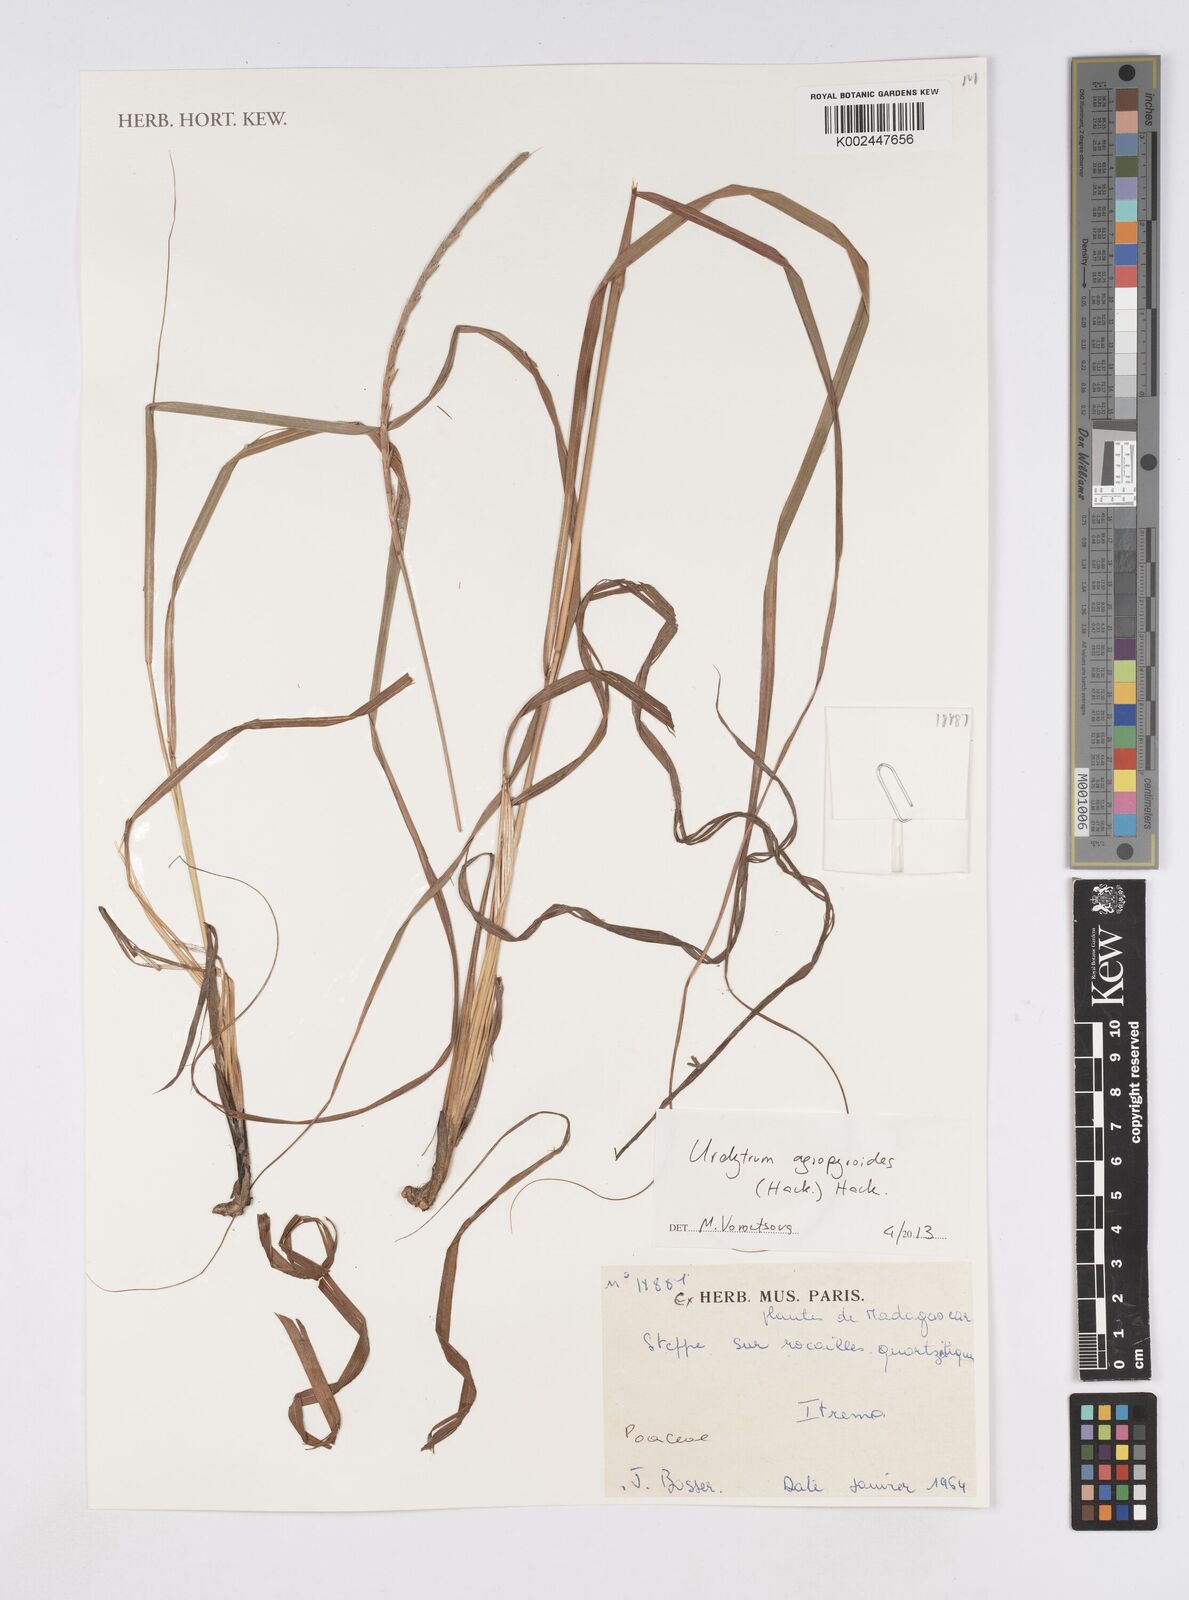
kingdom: Plantae
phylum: Tracheophyta
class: Liliopsida
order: Poales
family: Poaceae
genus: Urelytrum
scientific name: Urelytrum agropyroides
